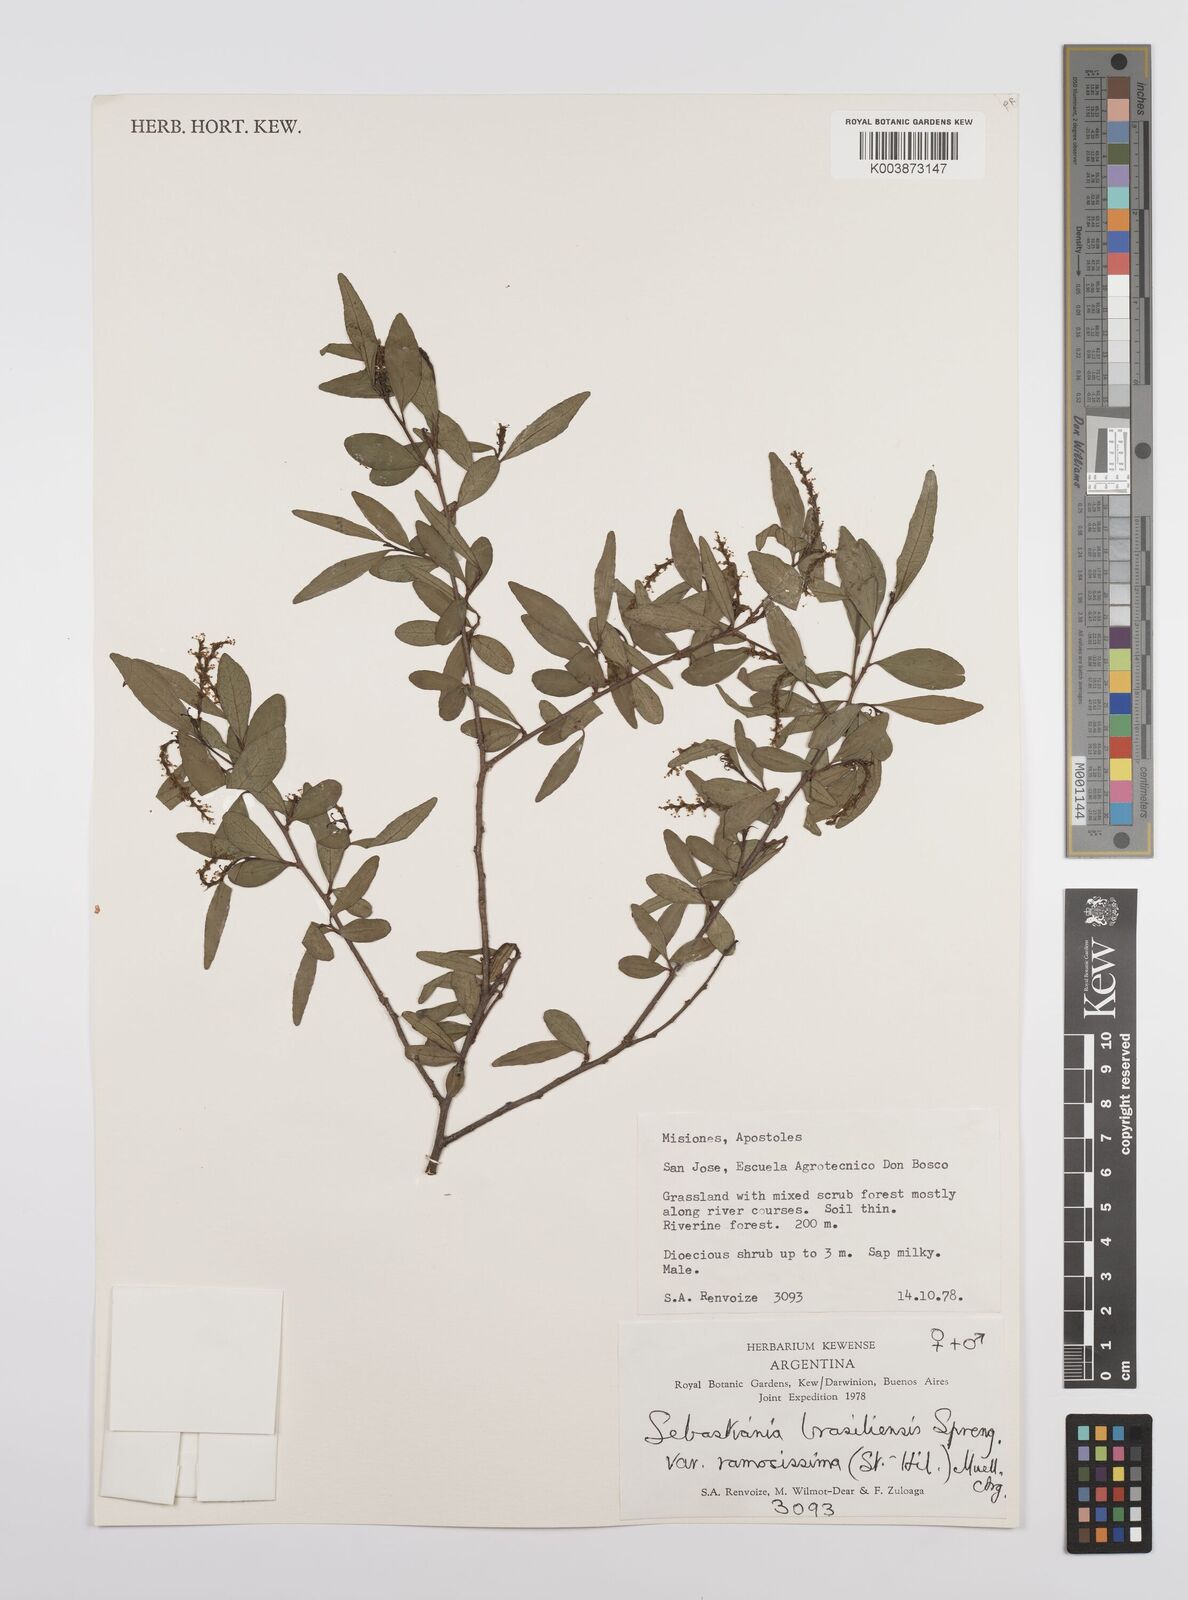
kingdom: Plantae
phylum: Tracheophyta
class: Magnoliopsida
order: Malpighiales
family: Euphorbiaceae
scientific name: Euphorbiaceae
